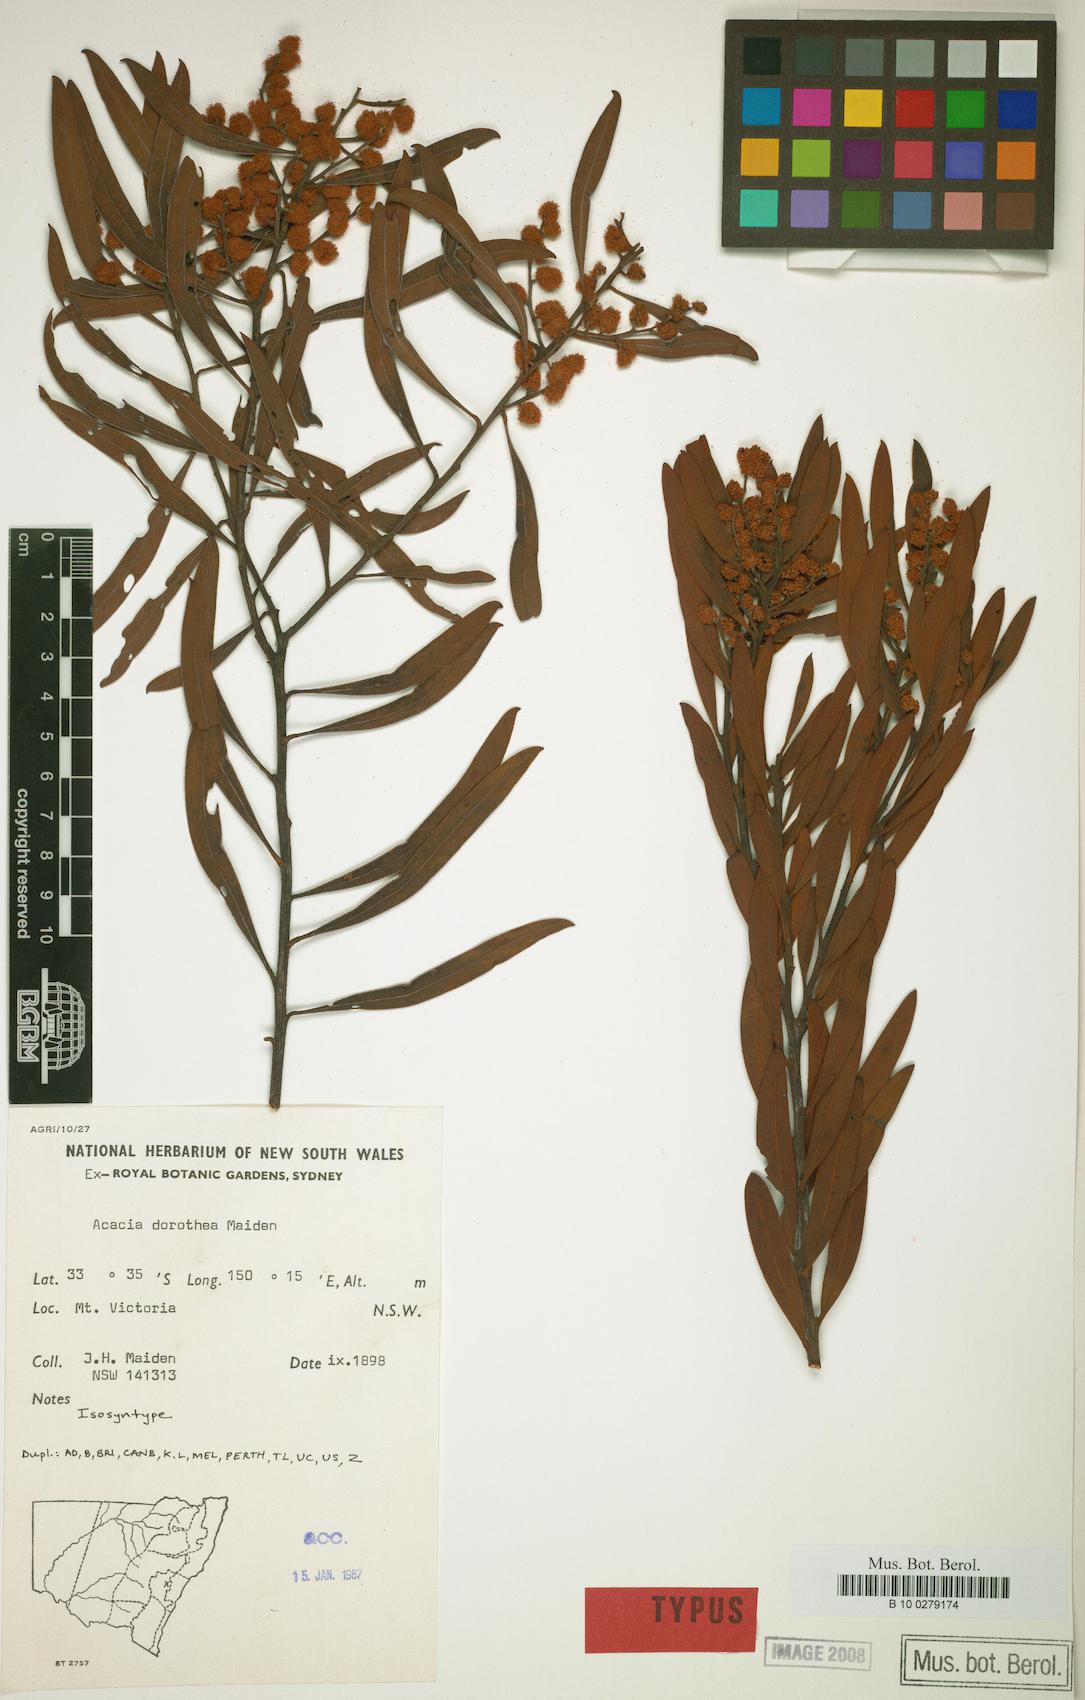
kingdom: Plantae
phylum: Tracheophyta
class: Magnoliopsida
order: Fabales
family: Fabaceae
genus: Acacia
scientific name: Acacia dorothea
